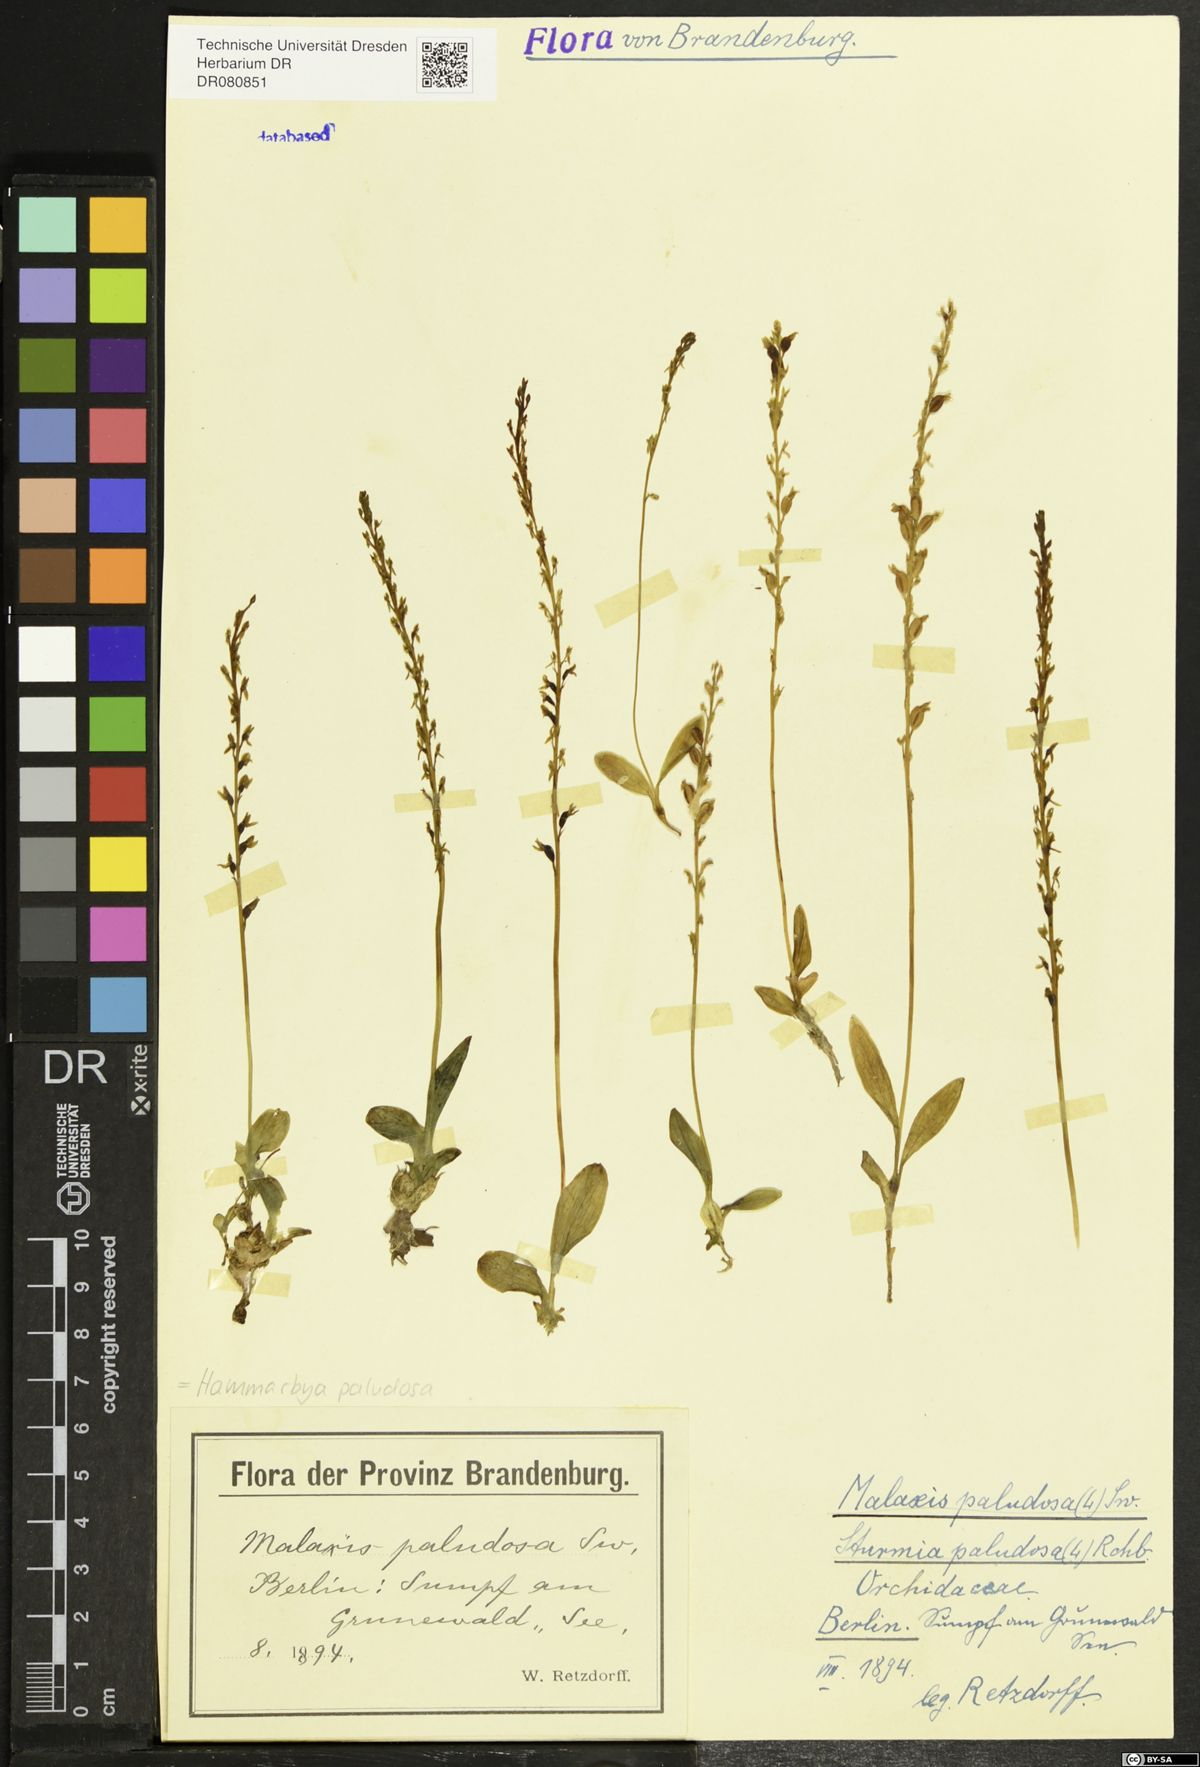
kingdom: Plantae
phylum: Tracheophyta
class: Liliopsida
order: Asparagales
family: Orchidaceae
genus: Hammarbya
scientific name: Hammarbya paludosa
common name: Bog orchid
